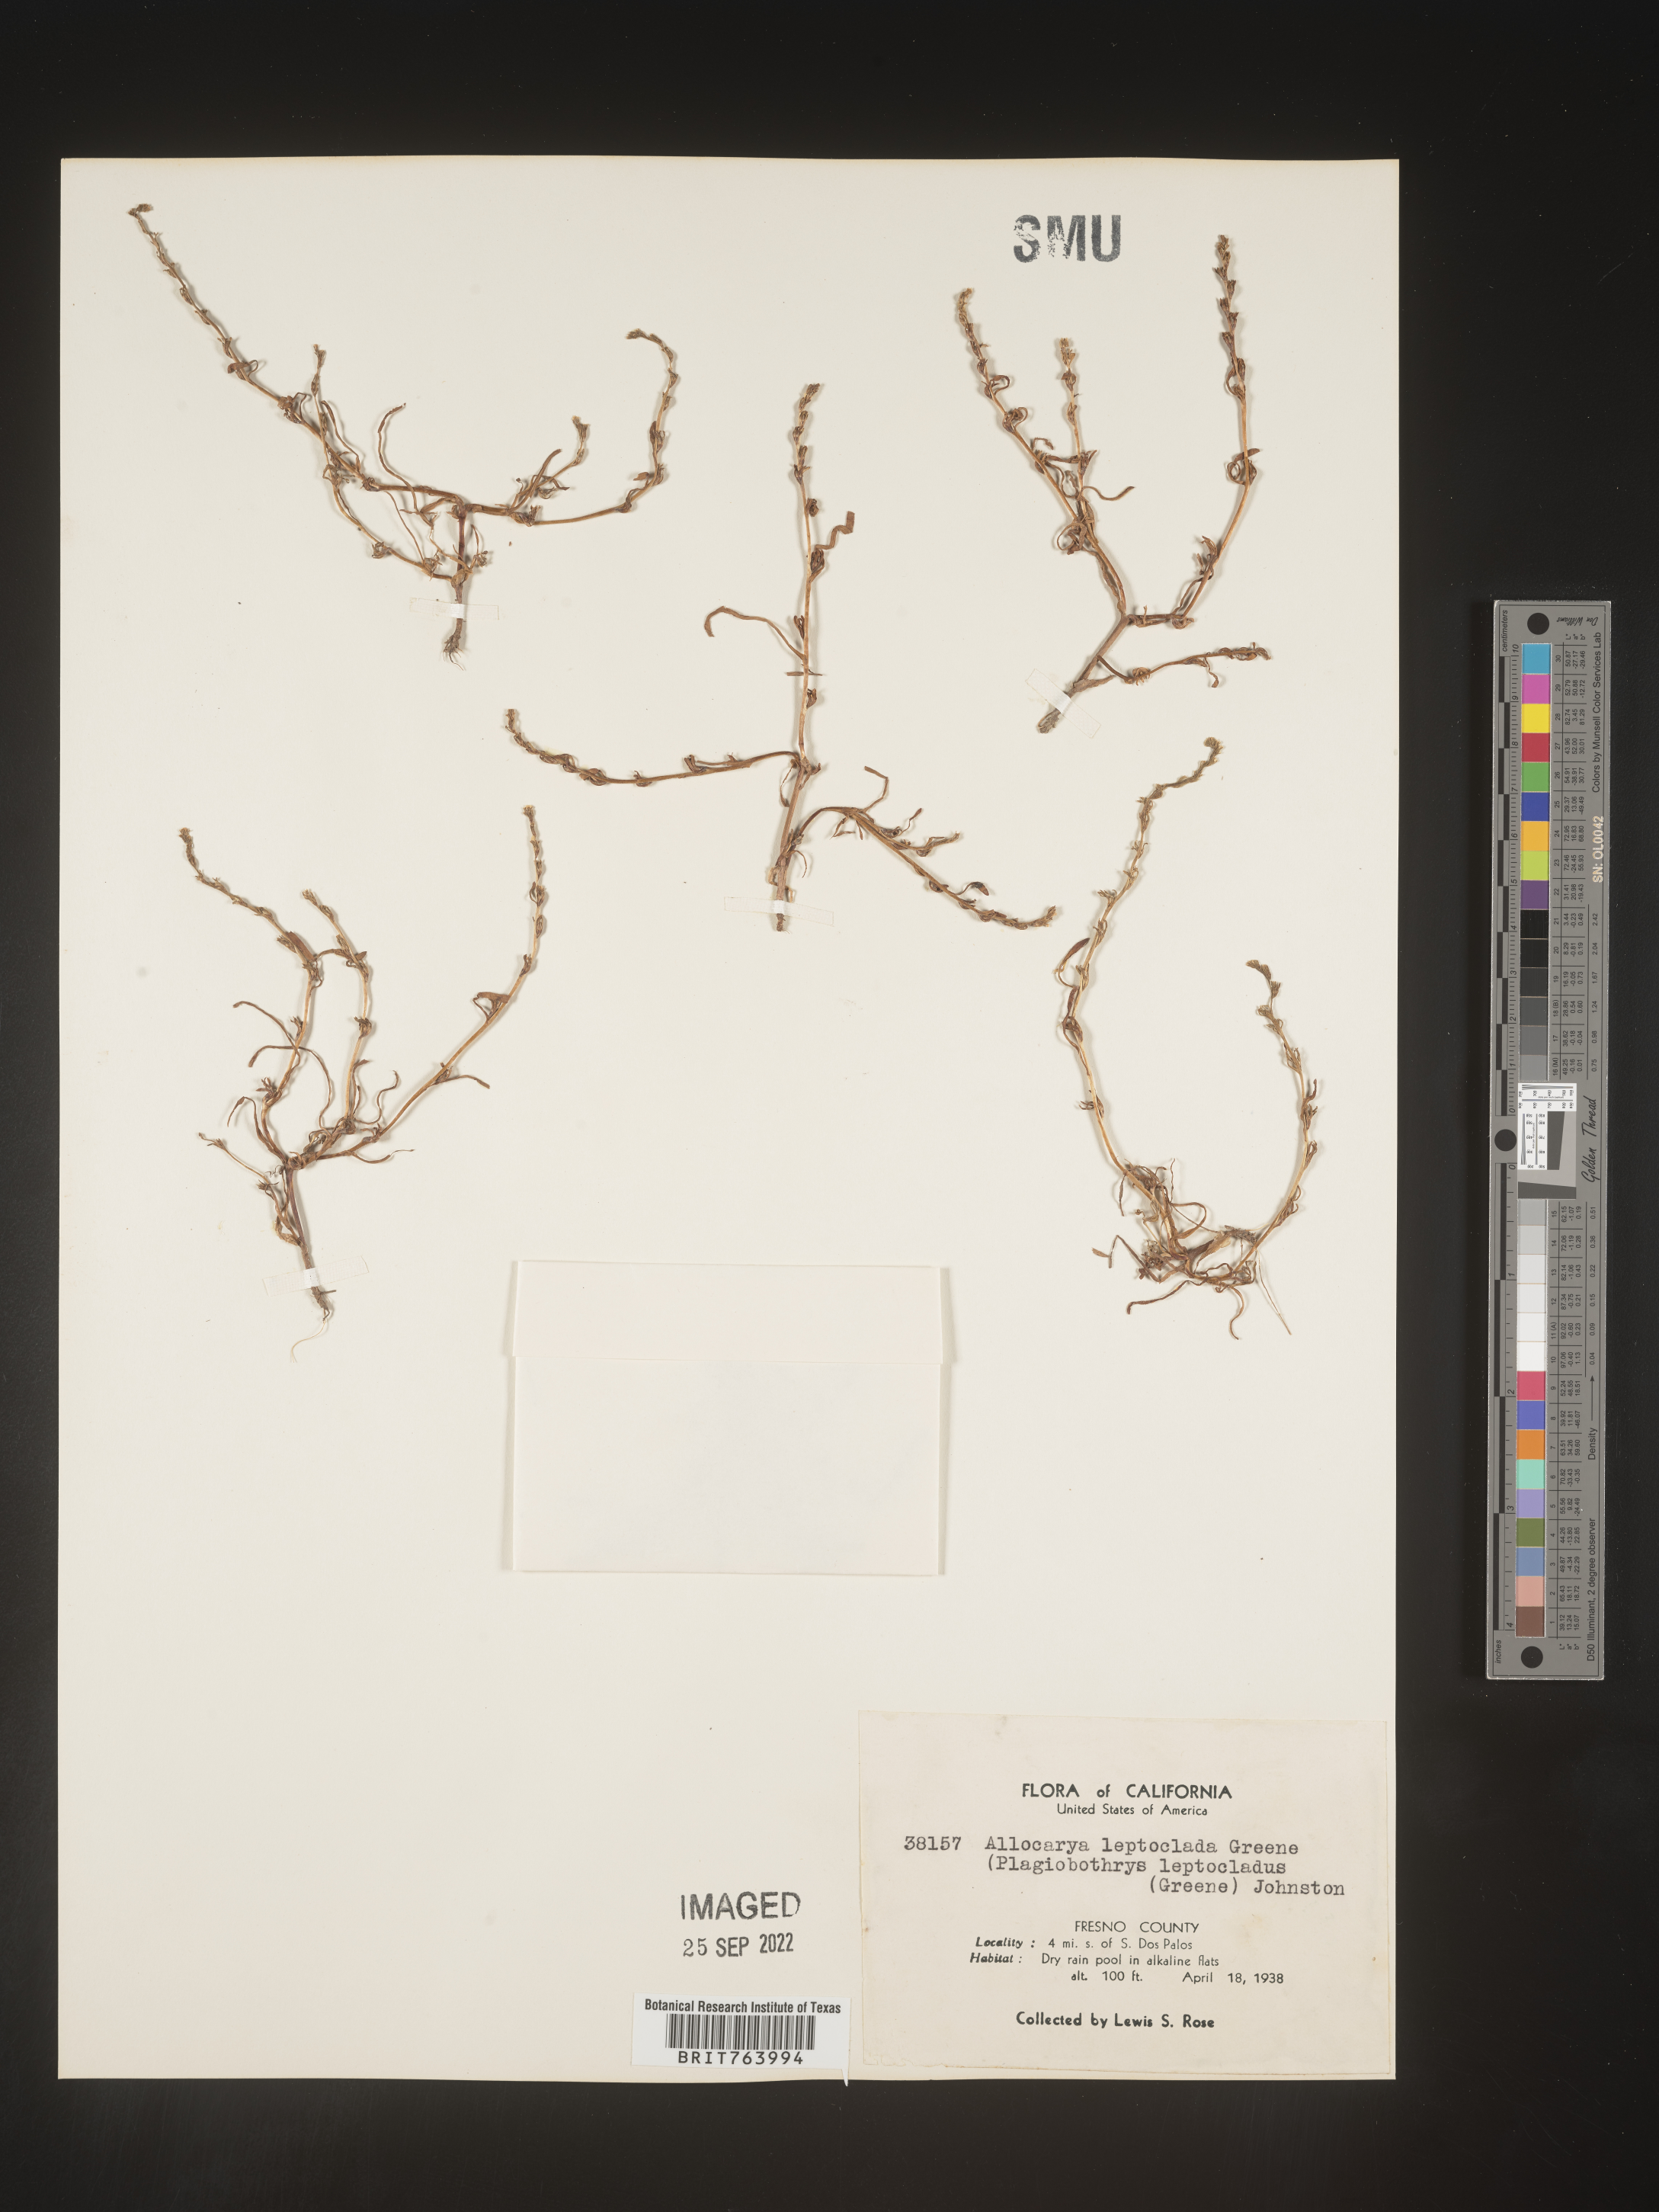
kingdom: Plantae
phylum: Tracheophyta
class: Magnoliopsida
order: Boraginales
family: Boraginaceae
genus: Plagiobothrys
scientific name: Plagiobothrys
